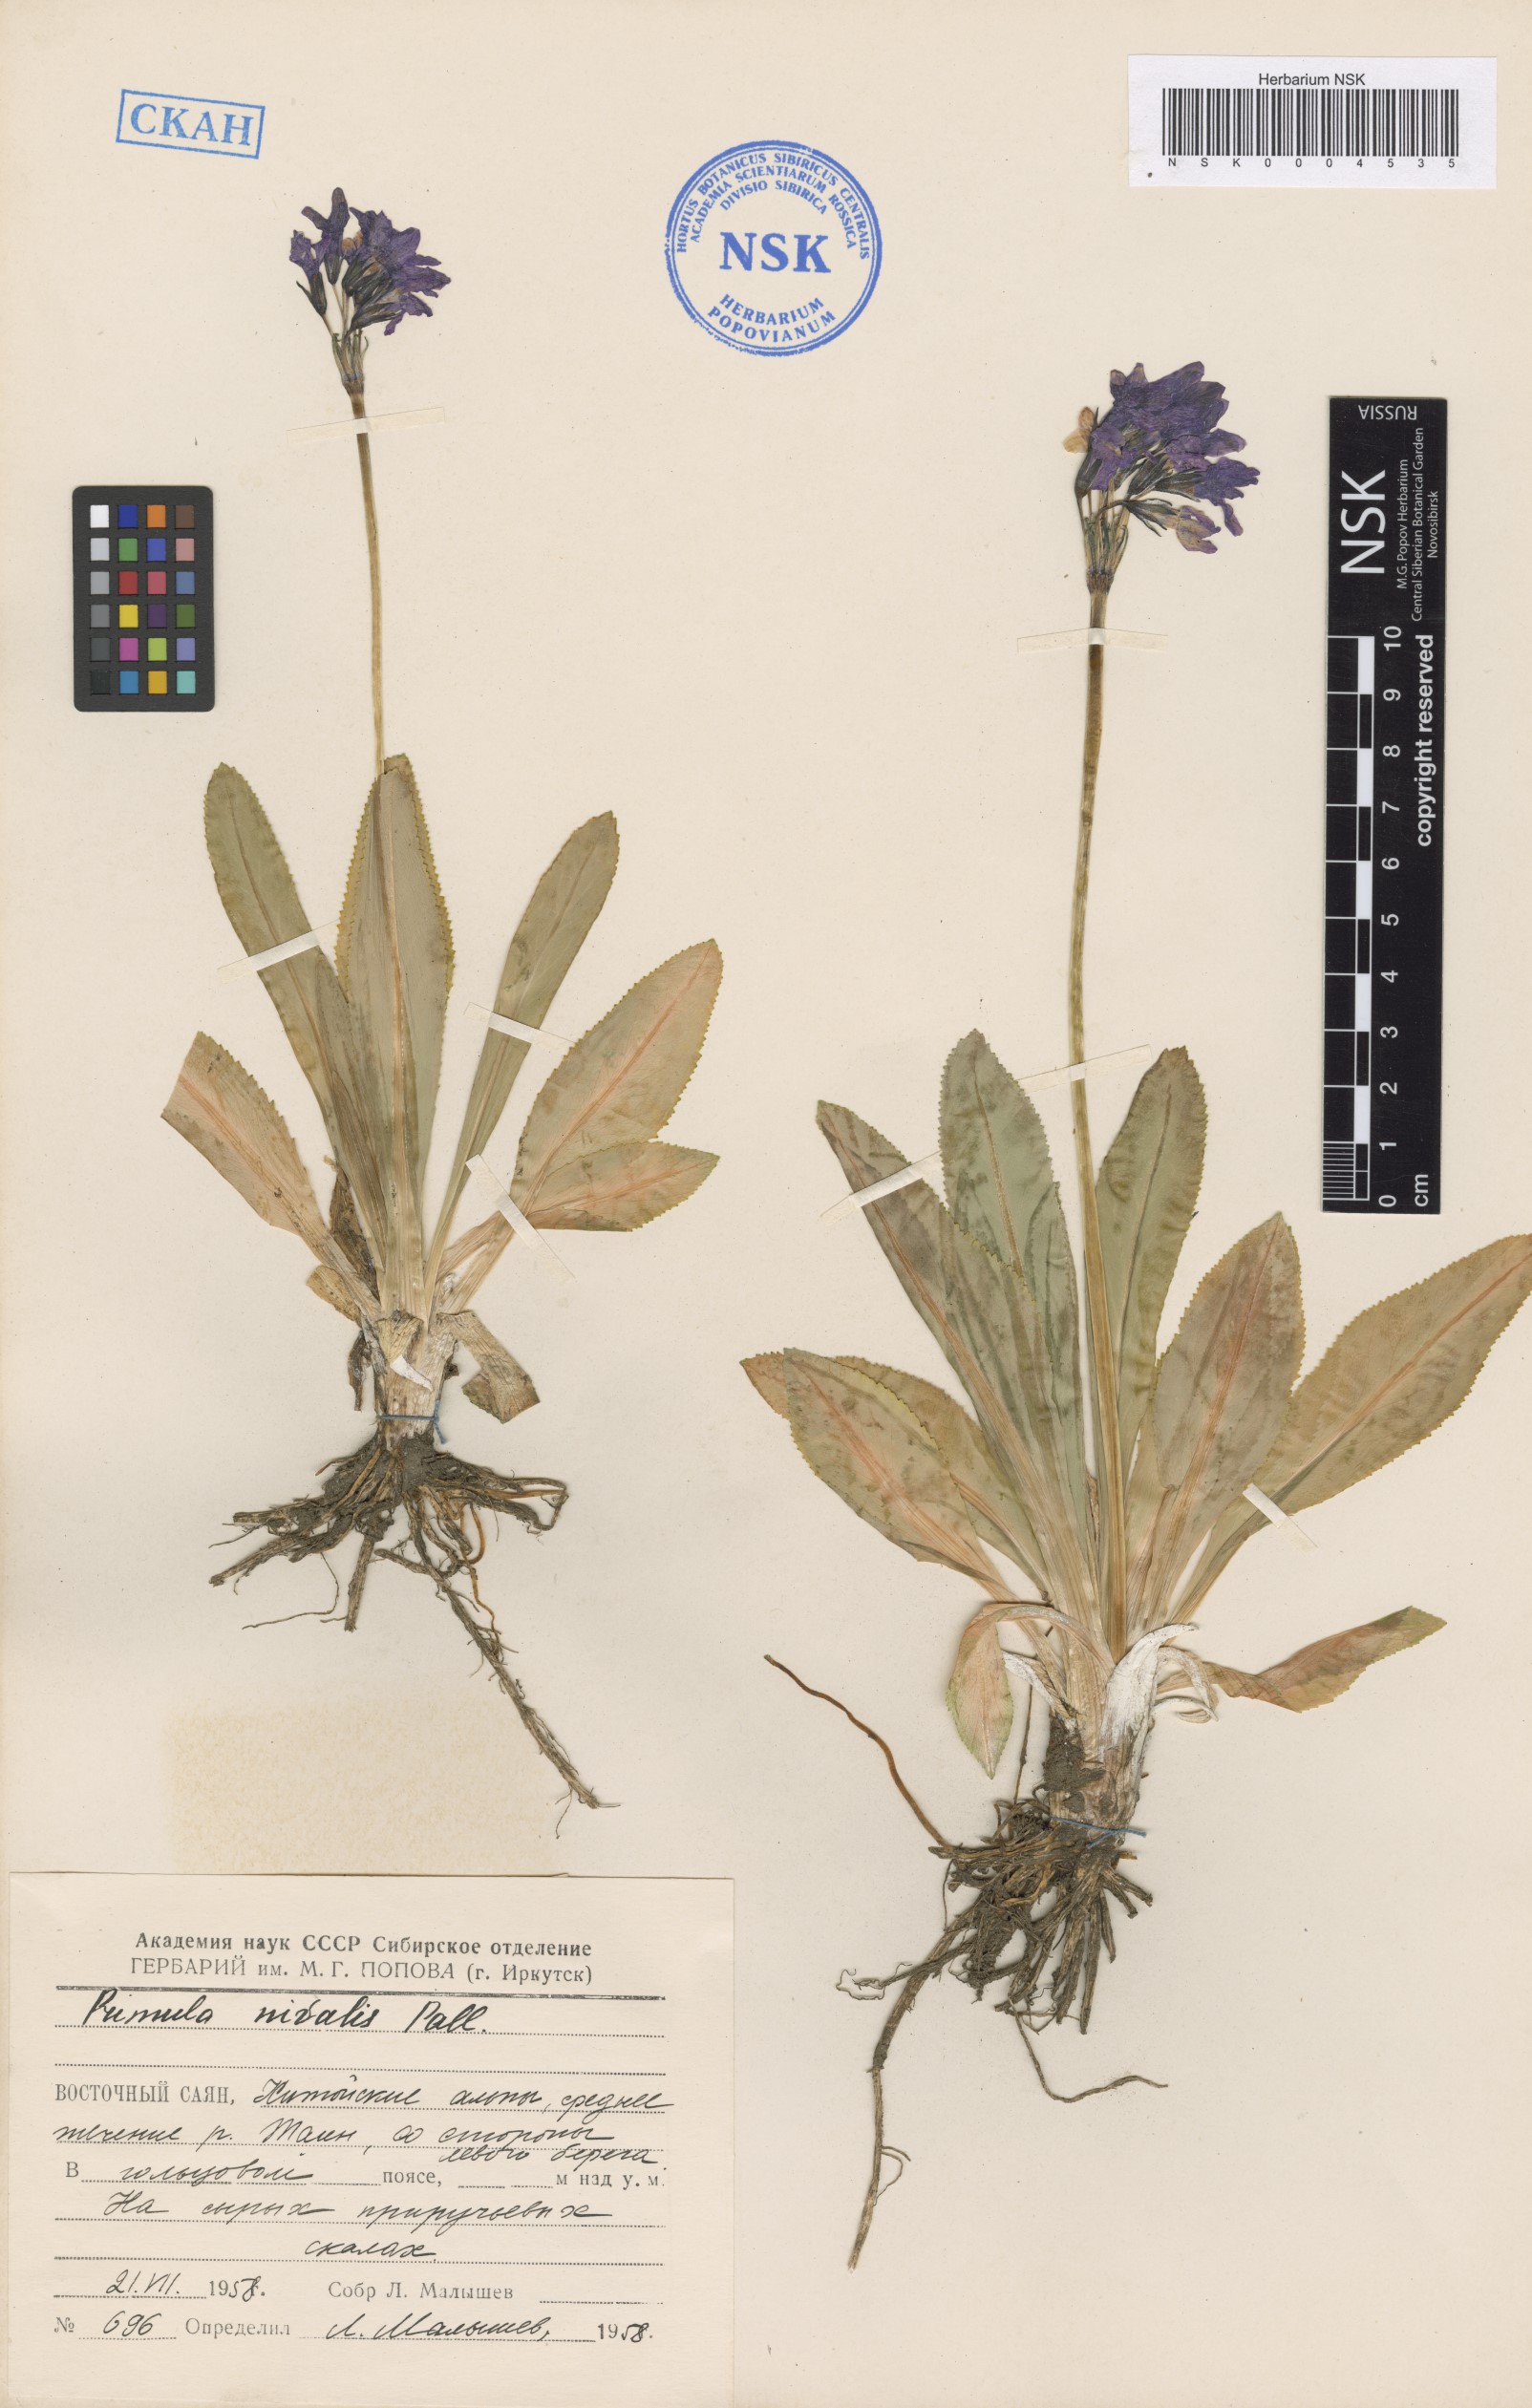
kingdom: Plantae
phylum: Tracheophyta
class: Magnoliopsida
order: Ericales
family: Primulaceae
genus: Primula
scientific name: Primula nivalis
